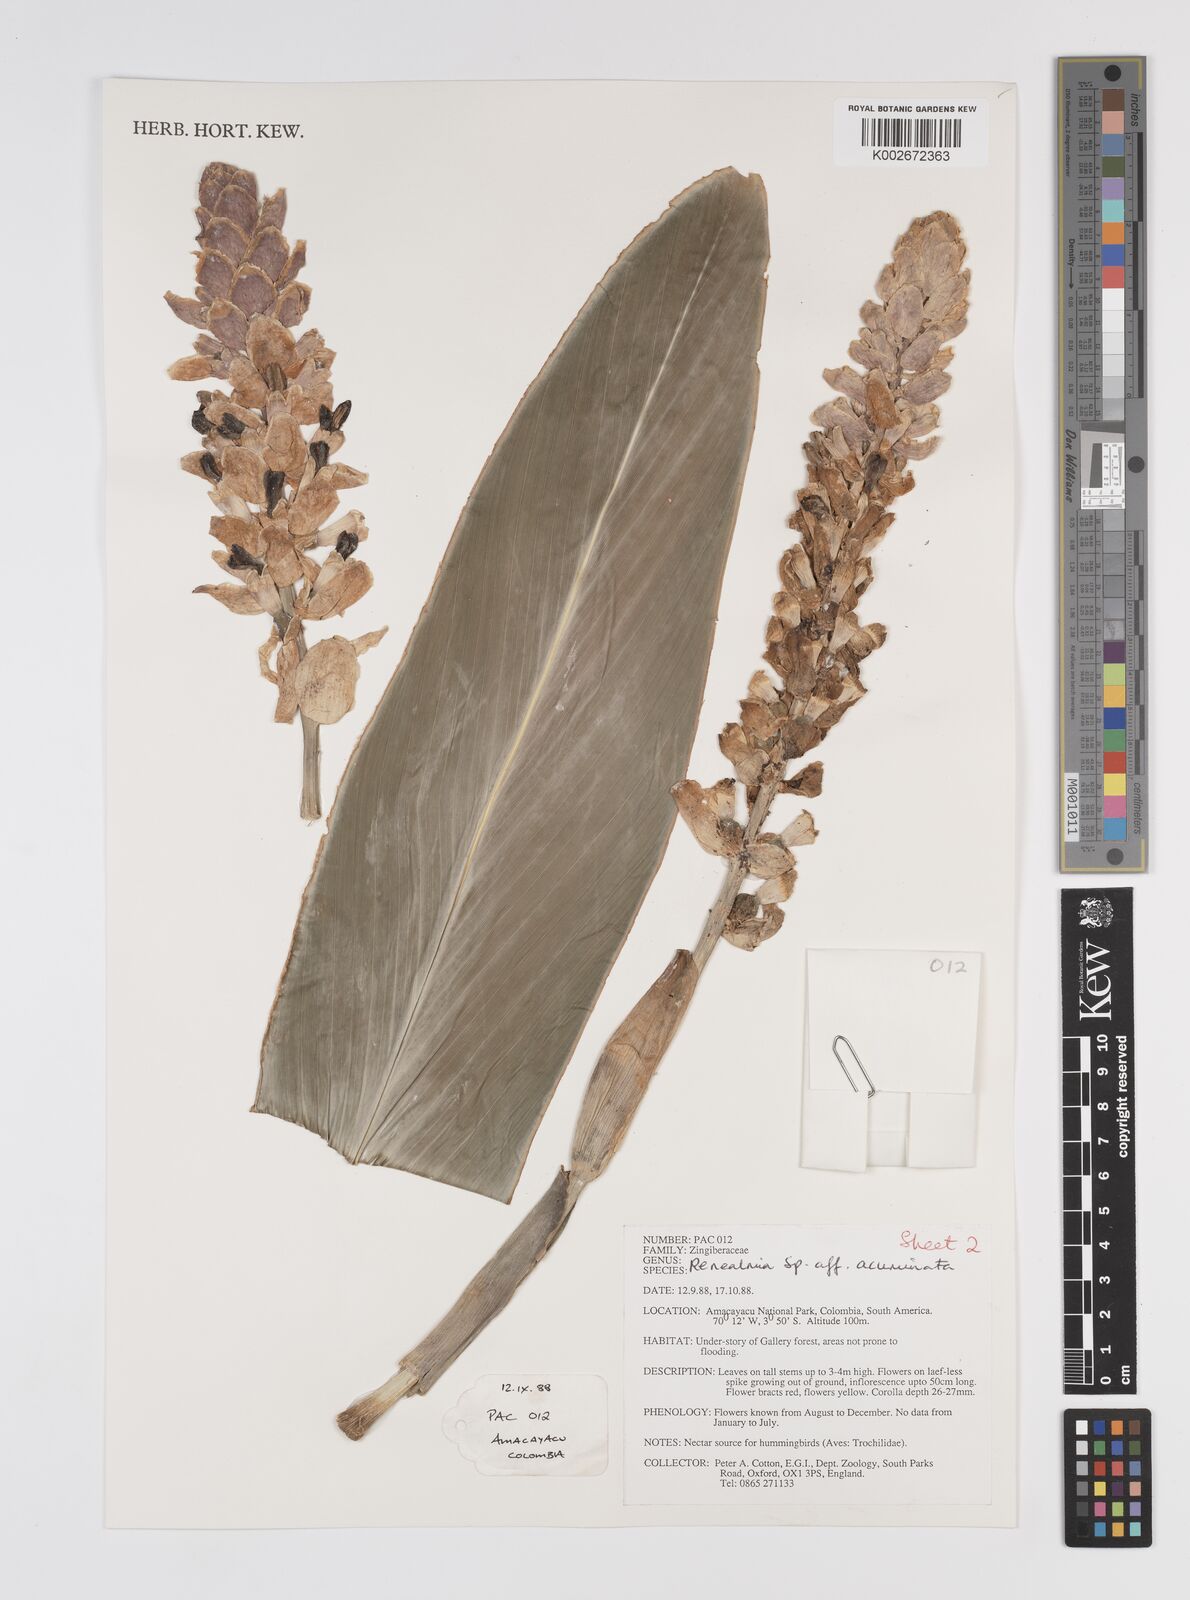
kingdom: Plantae
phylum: Tracheophyta
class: Liliopsida
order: Zingiberales
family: Zingiberaceae
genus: Renealmia
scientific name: Renealmia thyrsoidea
